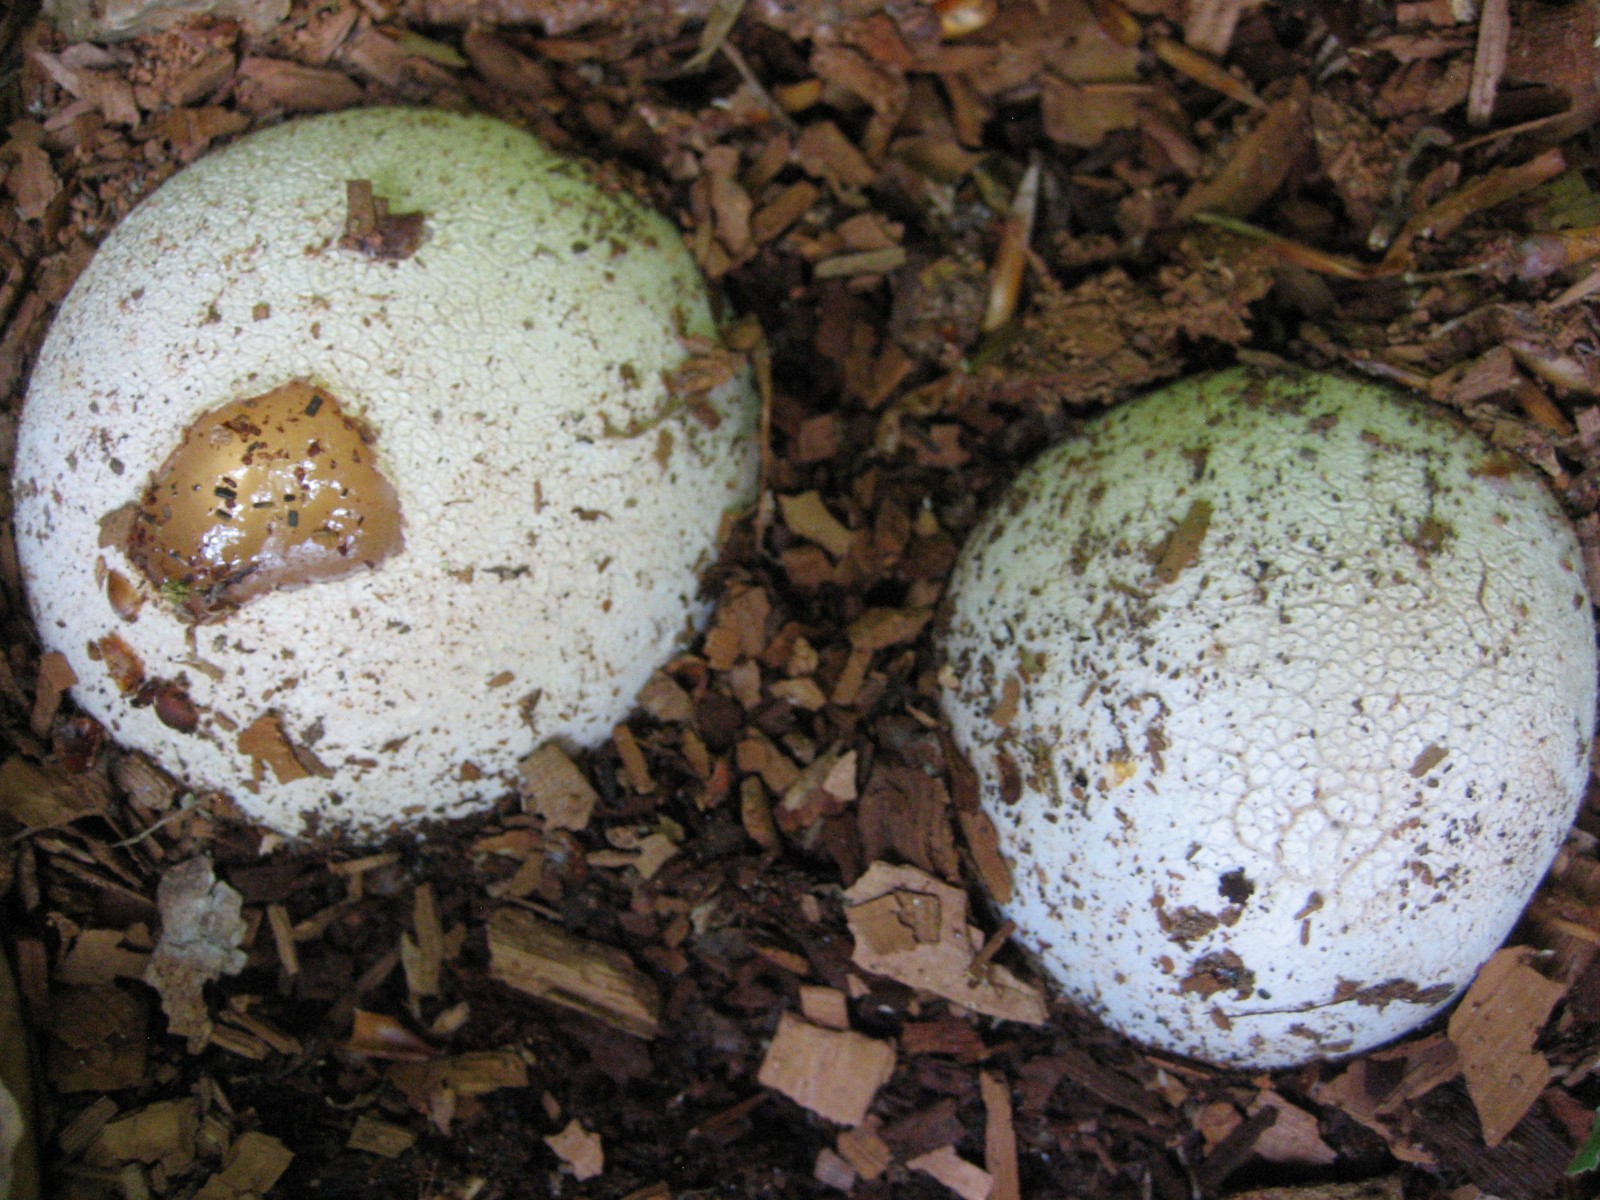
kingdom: Fungi
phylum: Basidiomycota
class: Agaricomycetes
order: Phallales
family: Phallaceae
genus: Phallus
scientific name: Phallus impudicus
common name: almindelig stinksvamp
